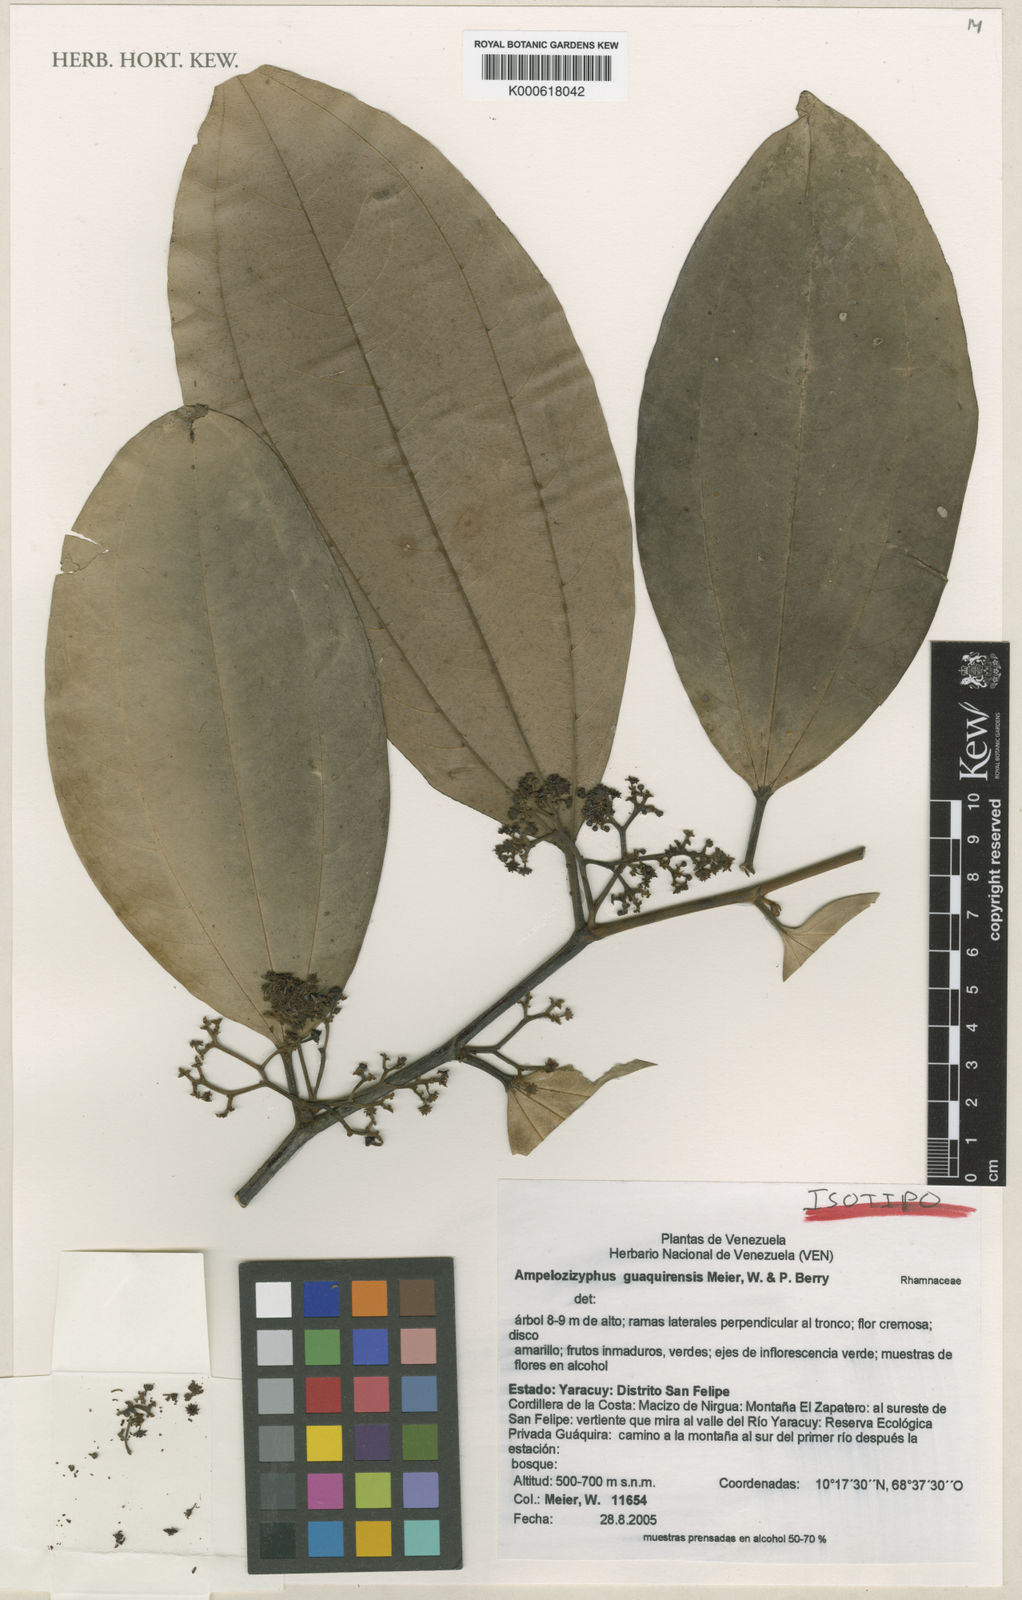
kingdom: Plantae
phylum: Tracheophyta
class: Magnoliopsida
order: Rosales
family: Rhamnaceae
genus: Ampelozizyphus
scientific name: Ampelozizyphus guaquirensis
